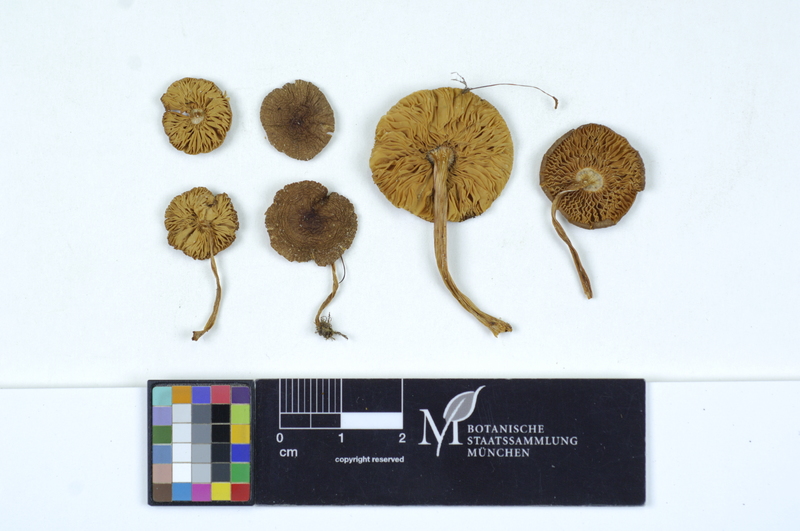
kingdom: Fungi
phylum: Basidiomycota
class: Agaricomycetes
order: Agaricales
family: Pluteaceae
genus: Pluteus
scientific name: Pluteus romellii
